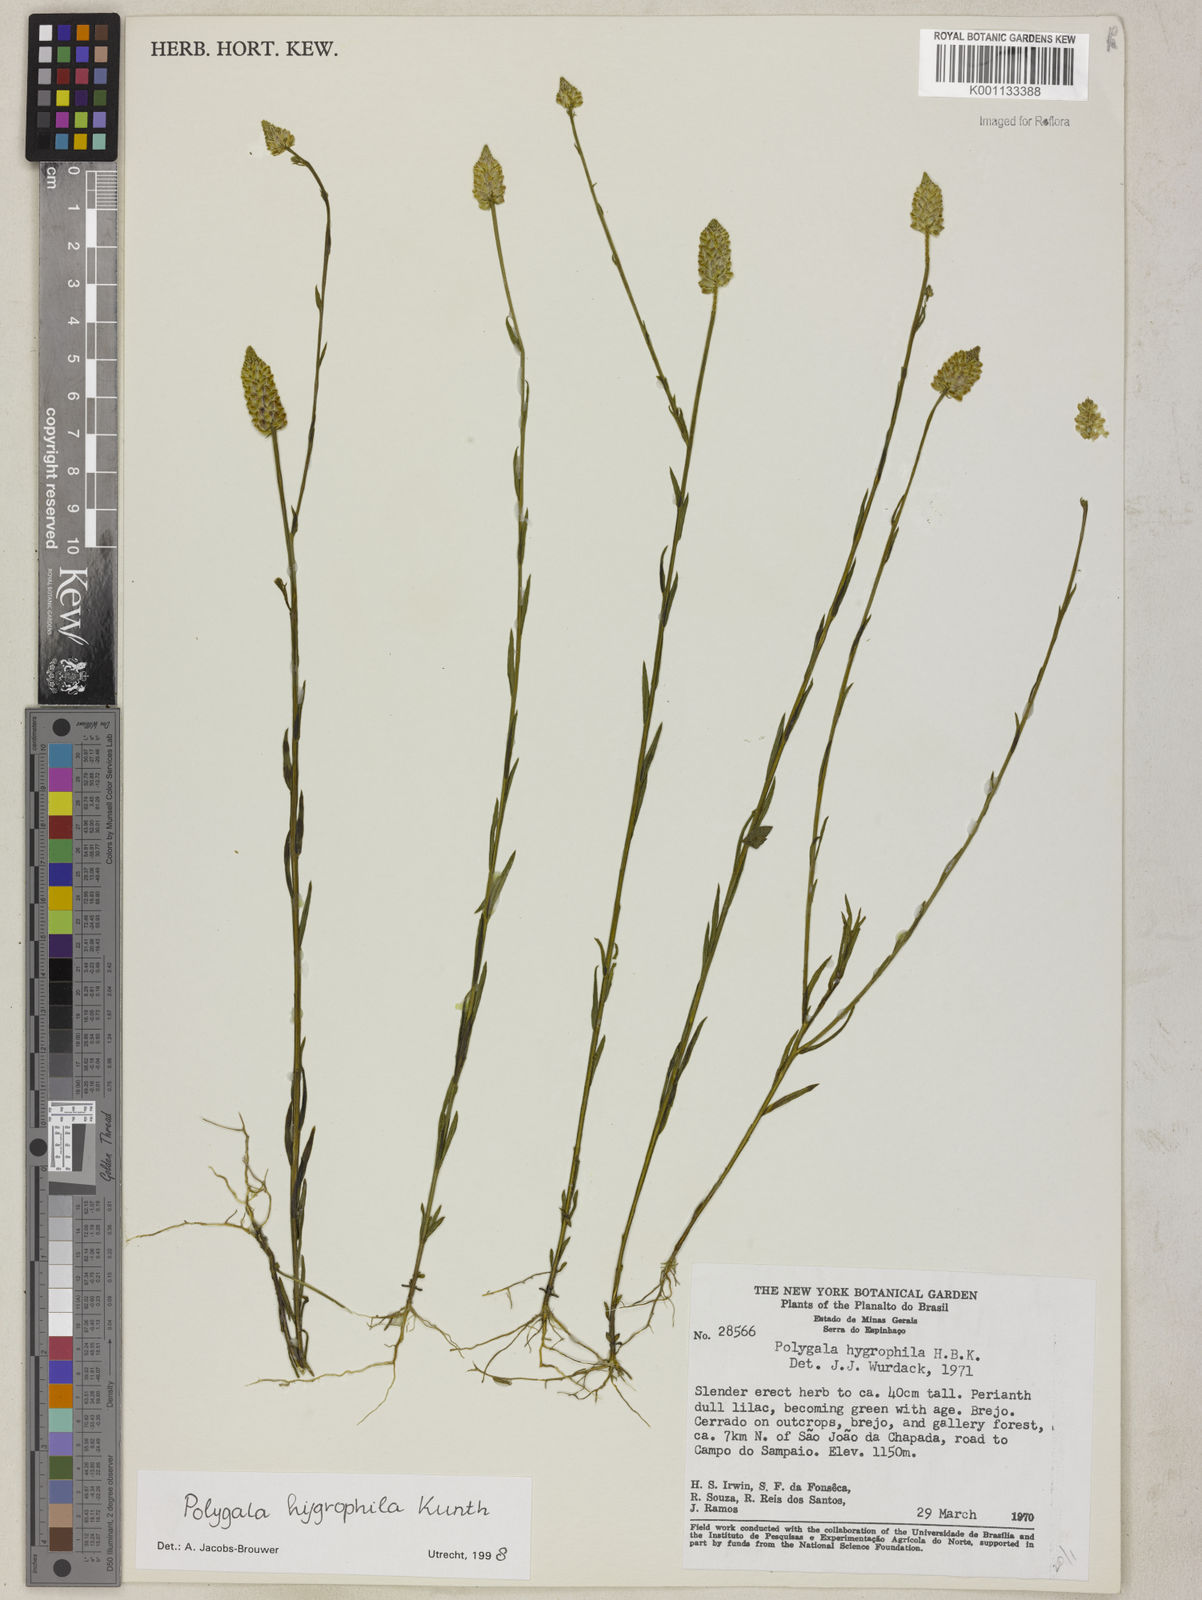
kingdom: Plantae
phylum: Tracheophyta
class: Magnoliopsida
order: Fabales
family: Polygalaceae
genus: Polygala
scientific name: Polygala hygrophila
